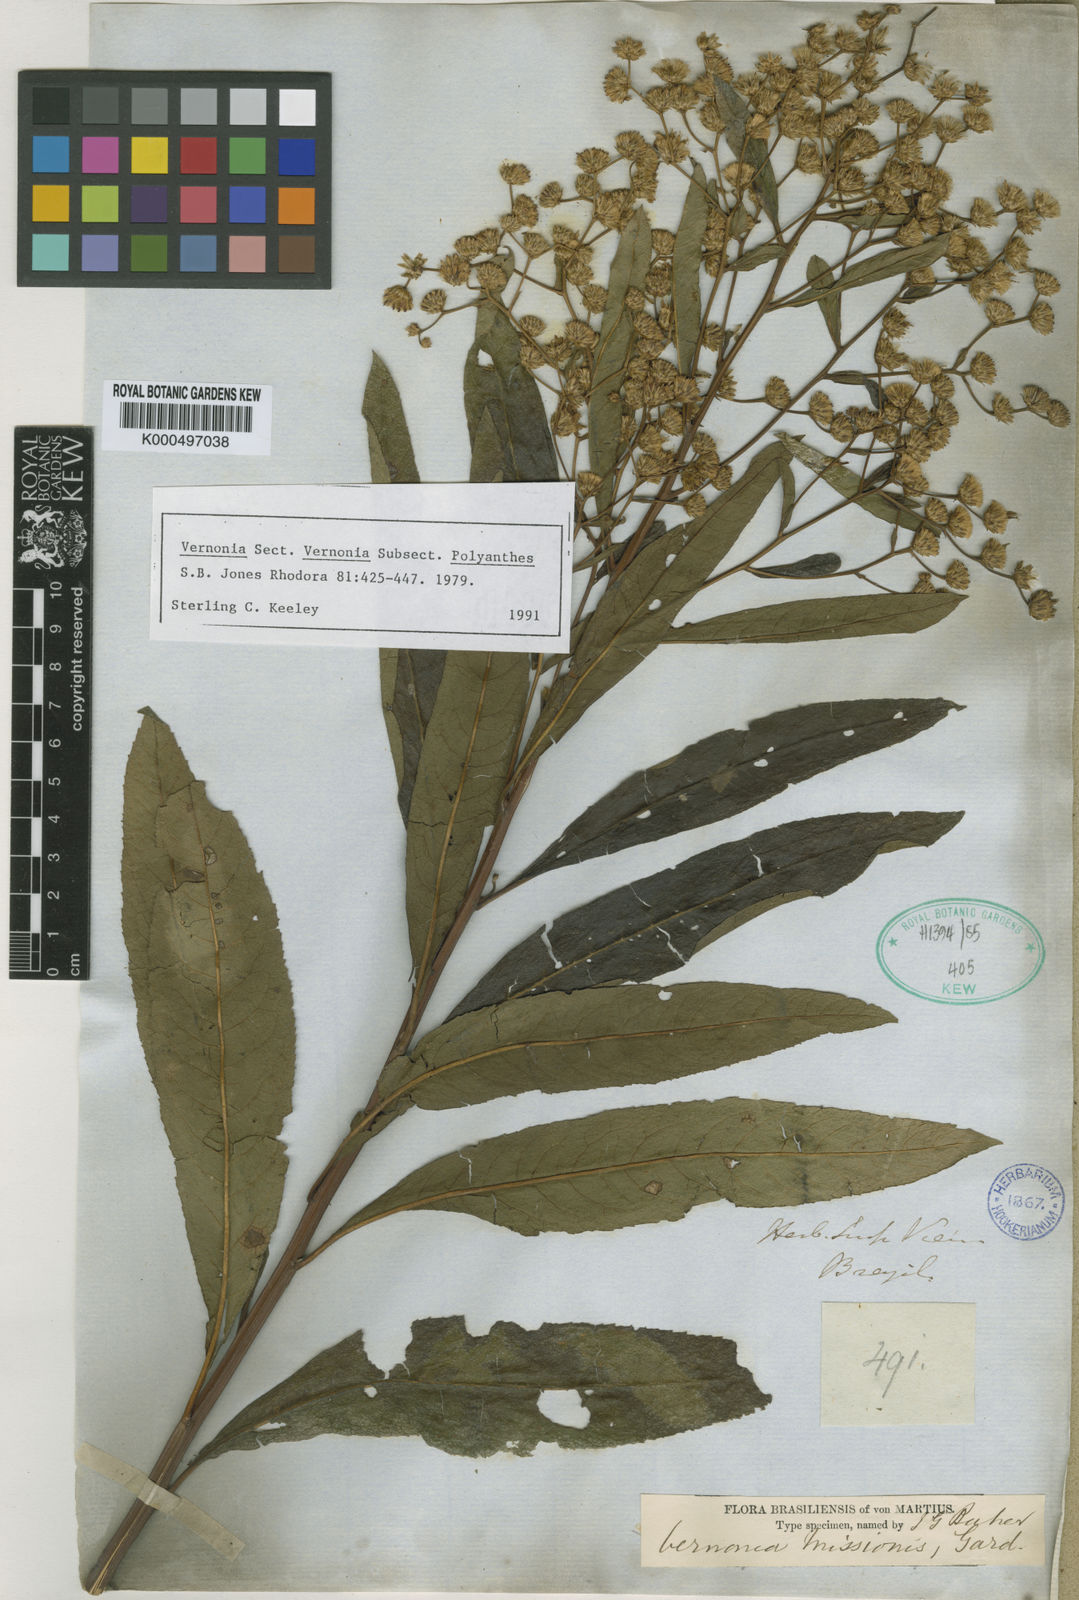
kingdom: Plantae
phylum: Tracheophyta
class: Magnoliopsida
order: Asterales
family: Asteraceae
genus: Vernonanthura
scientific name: Vernonanthura cymosa
